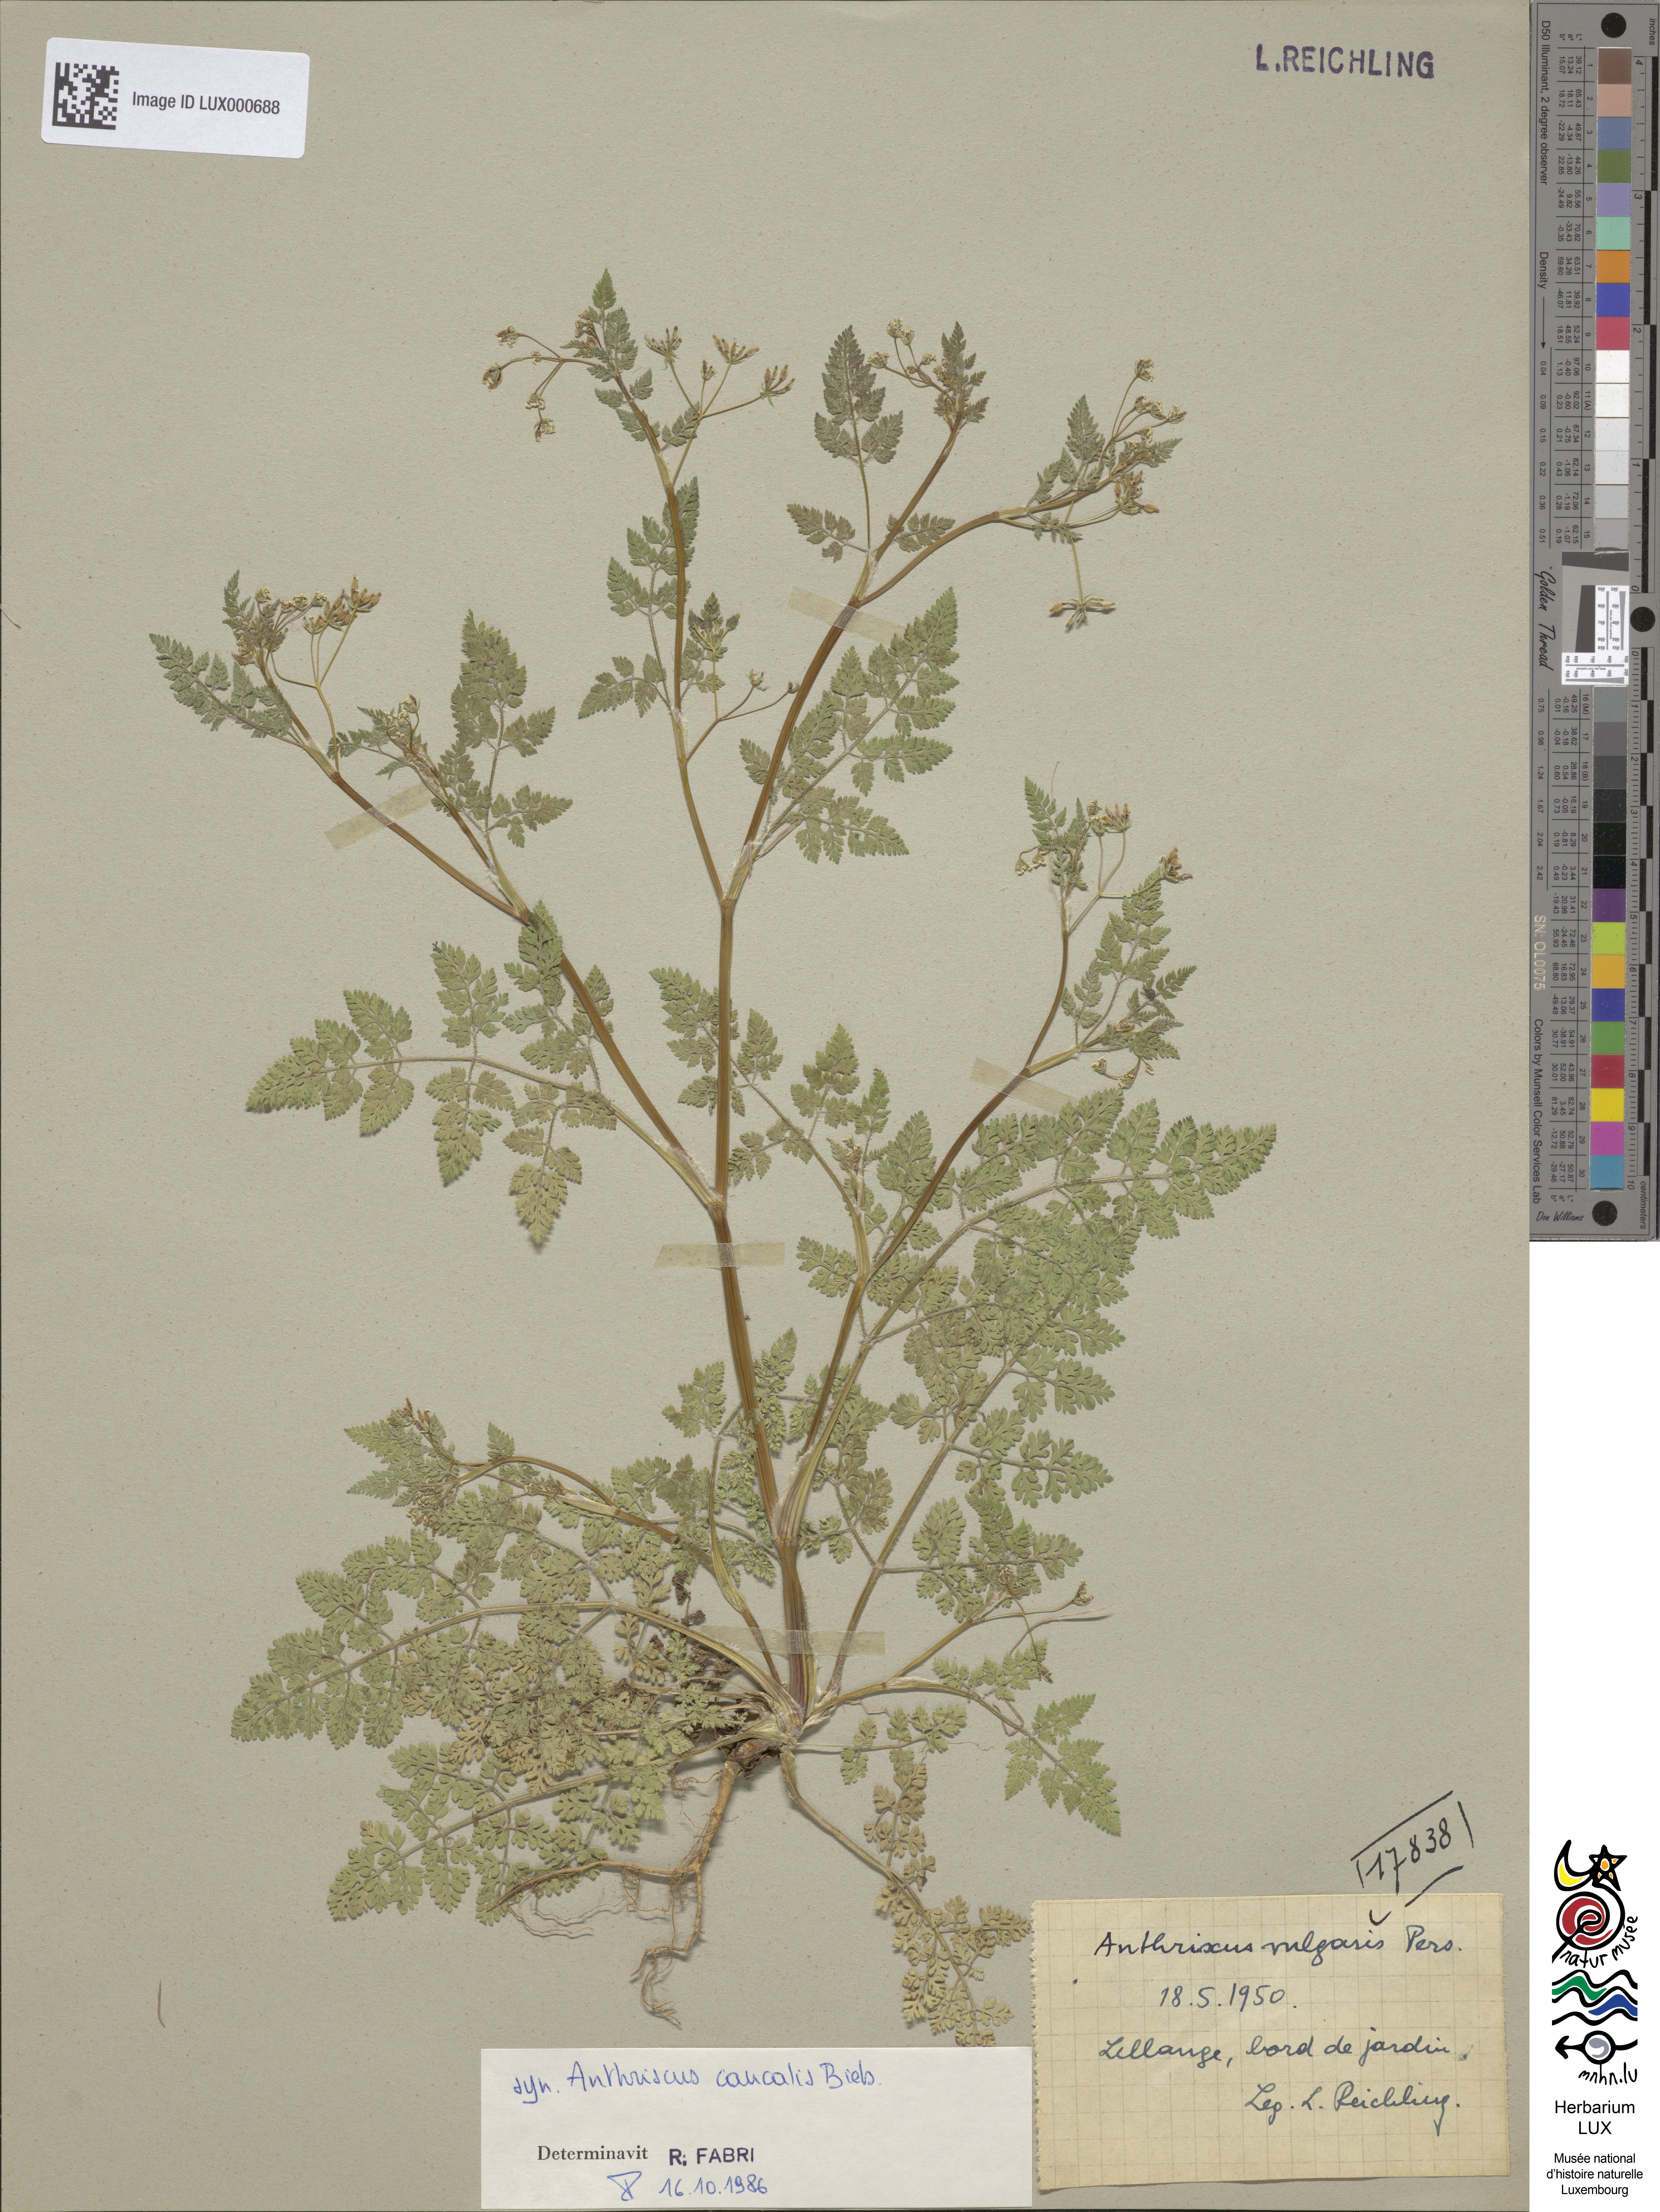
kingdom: Plantae
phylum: Tracheophyta
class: Magnoliopsida
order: Apiales
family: Apiaceae
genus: Anthriscus
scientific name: Anthriscus caucalis
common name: Bur chervil
